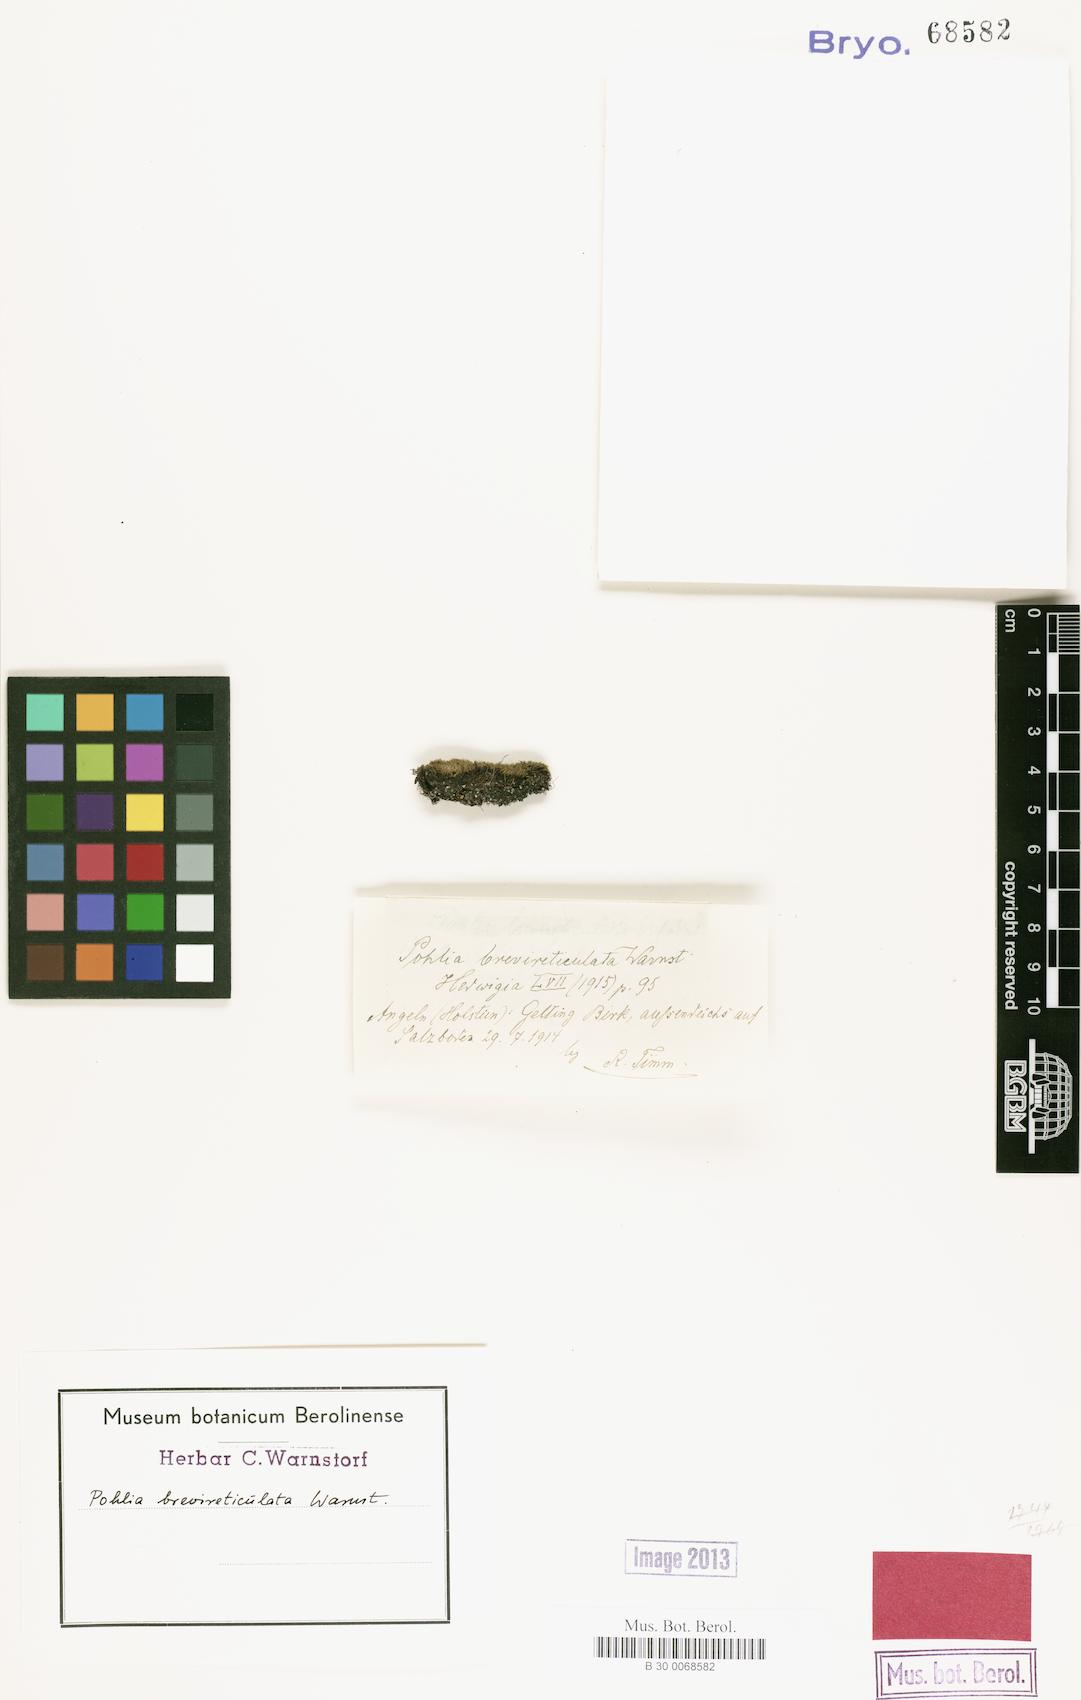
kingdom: Plantae
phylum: Bryophyta
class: Bryopsida
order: Bryales
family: Mniaceae
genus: Pohlia
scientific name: Pohlia brevireticulata
